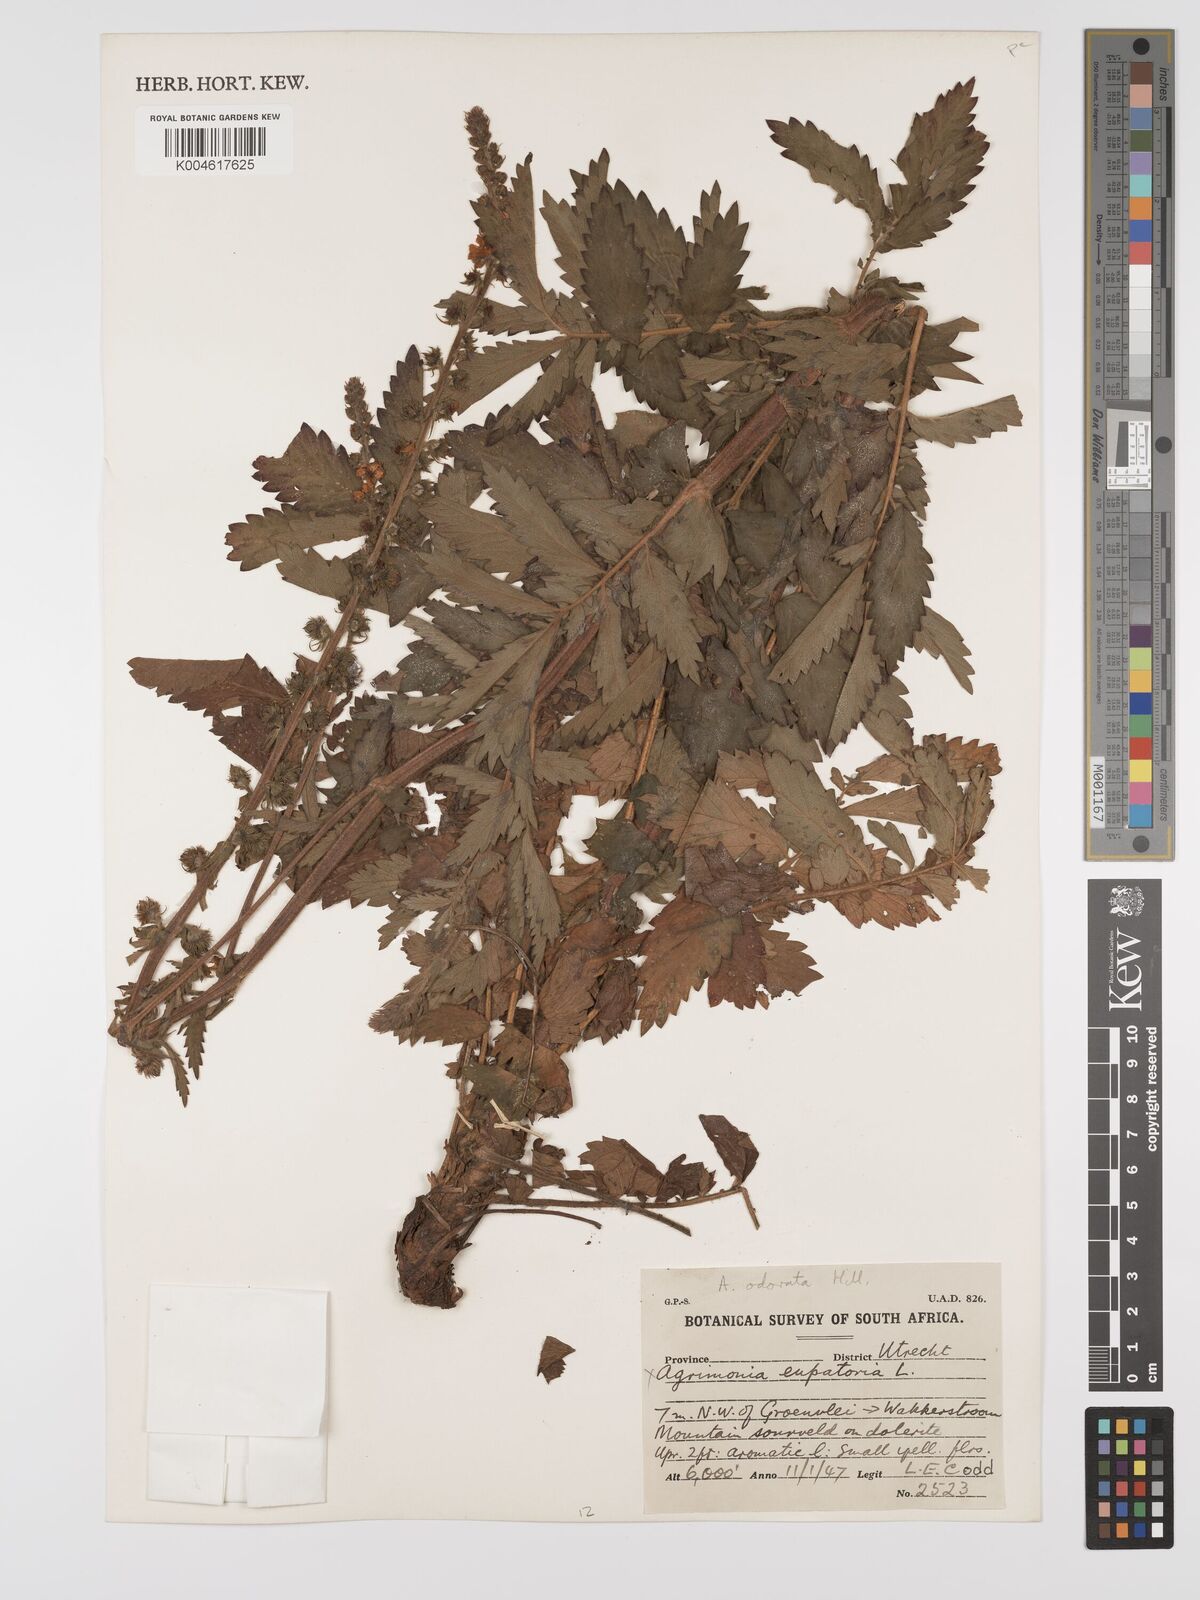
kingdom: Plantae
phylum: Tracheophyta
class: Magnoliopsida
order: Rosales
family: Rosaceae
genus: Agrimonia
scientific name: Agrimonia repens
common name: Creeping agrimony
